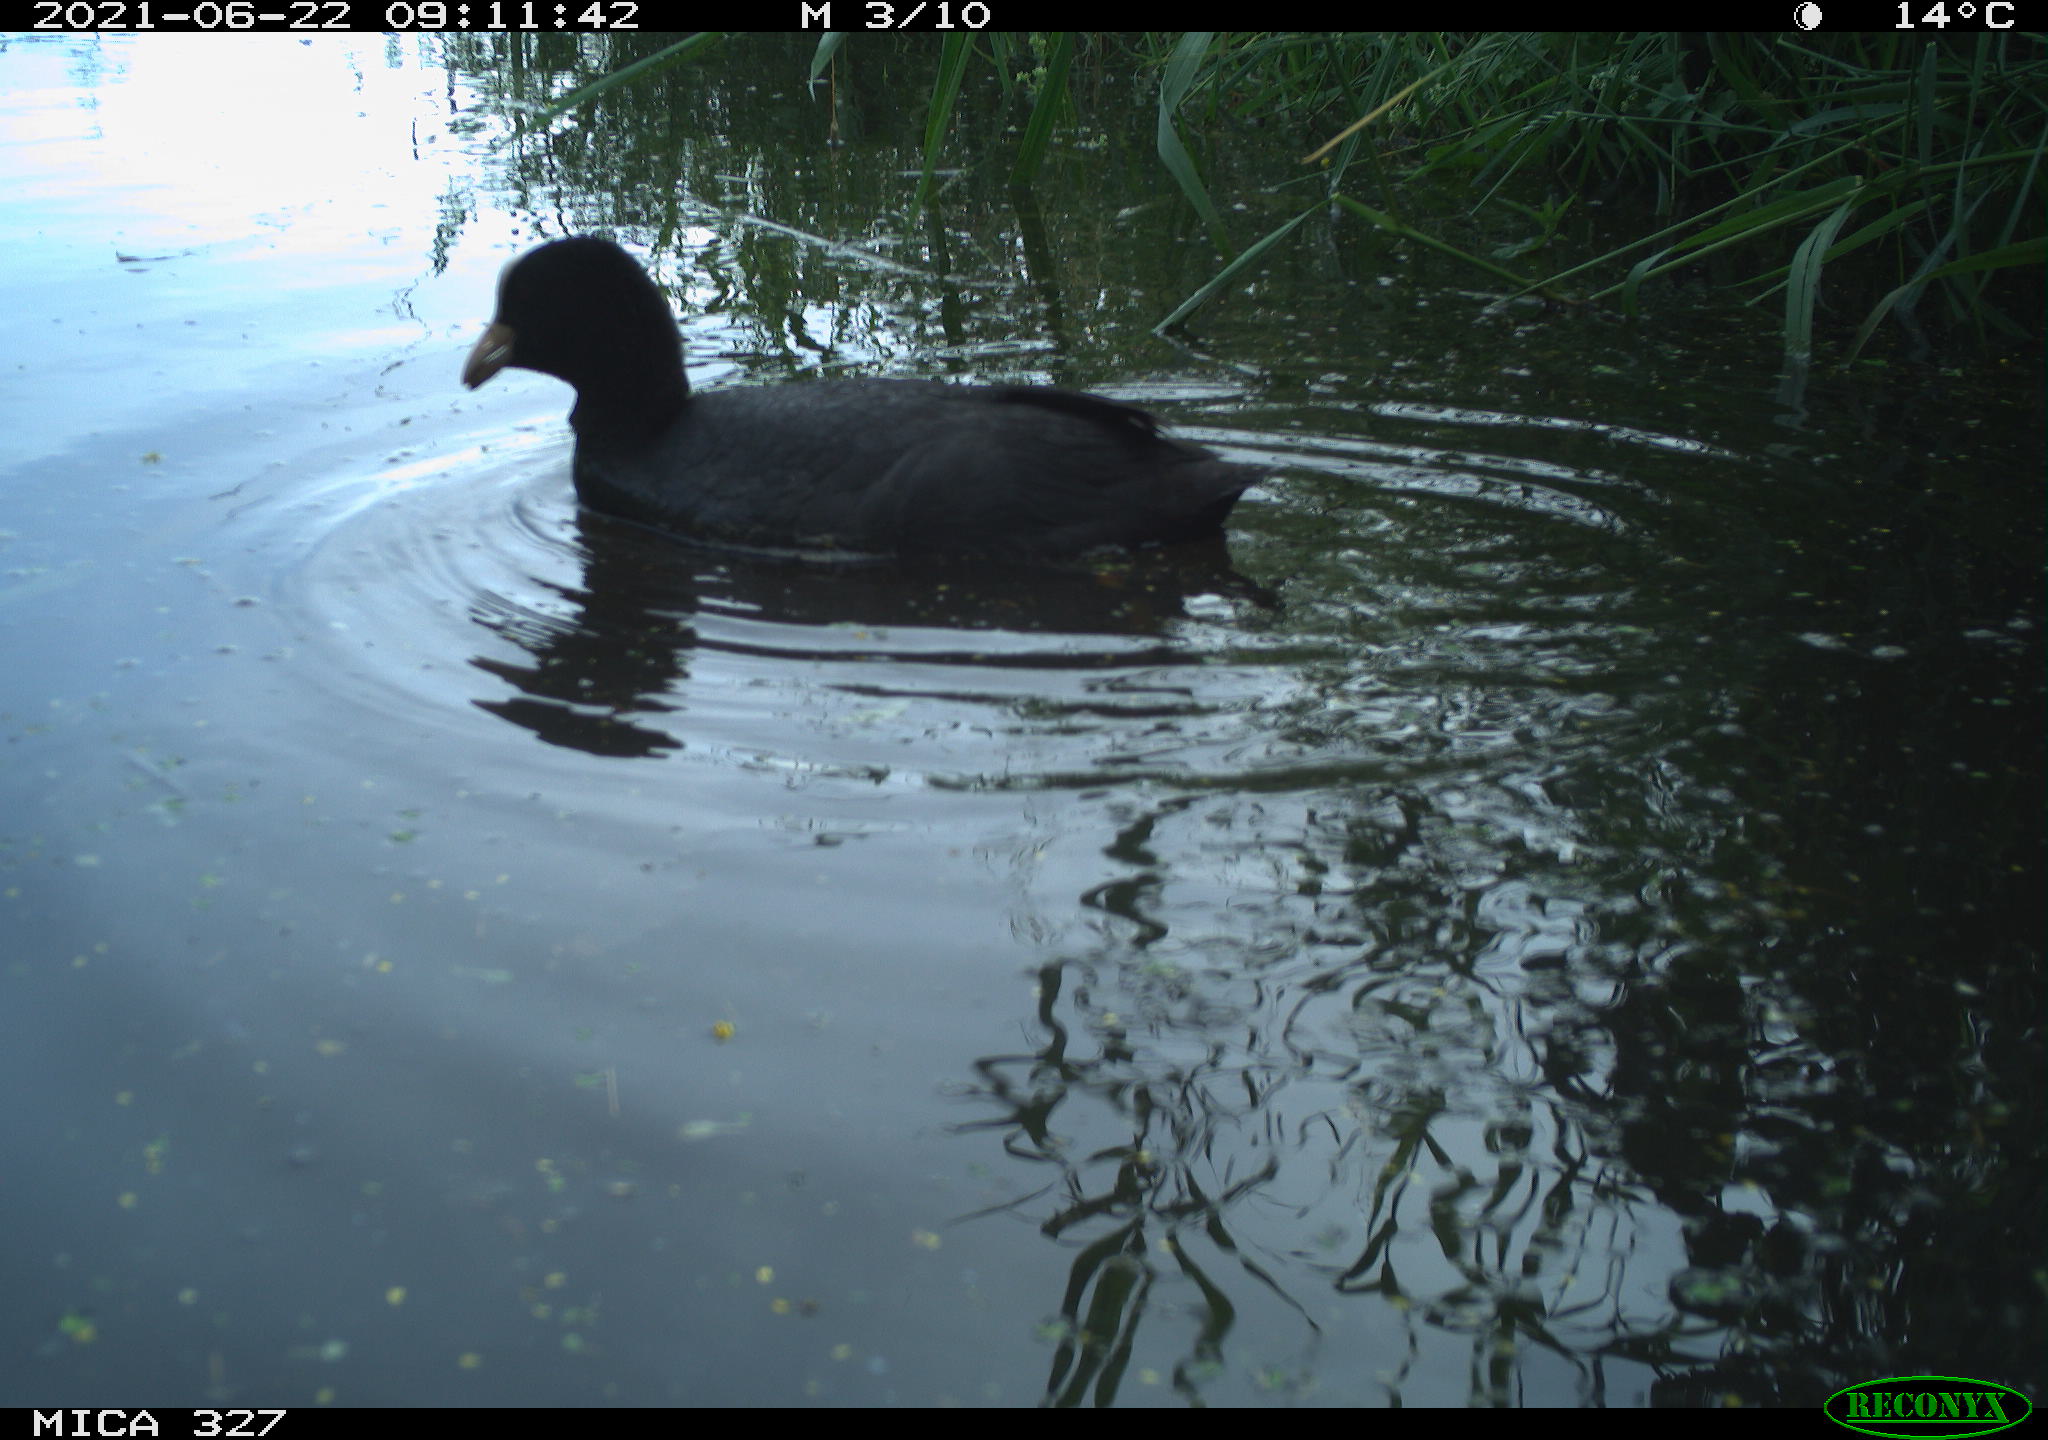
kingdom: Animalia
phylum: Chordata
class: Aves
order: Gruiformes
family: Rallidae
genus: Fulica
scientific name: Fulica atra
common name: Eurasian coot
